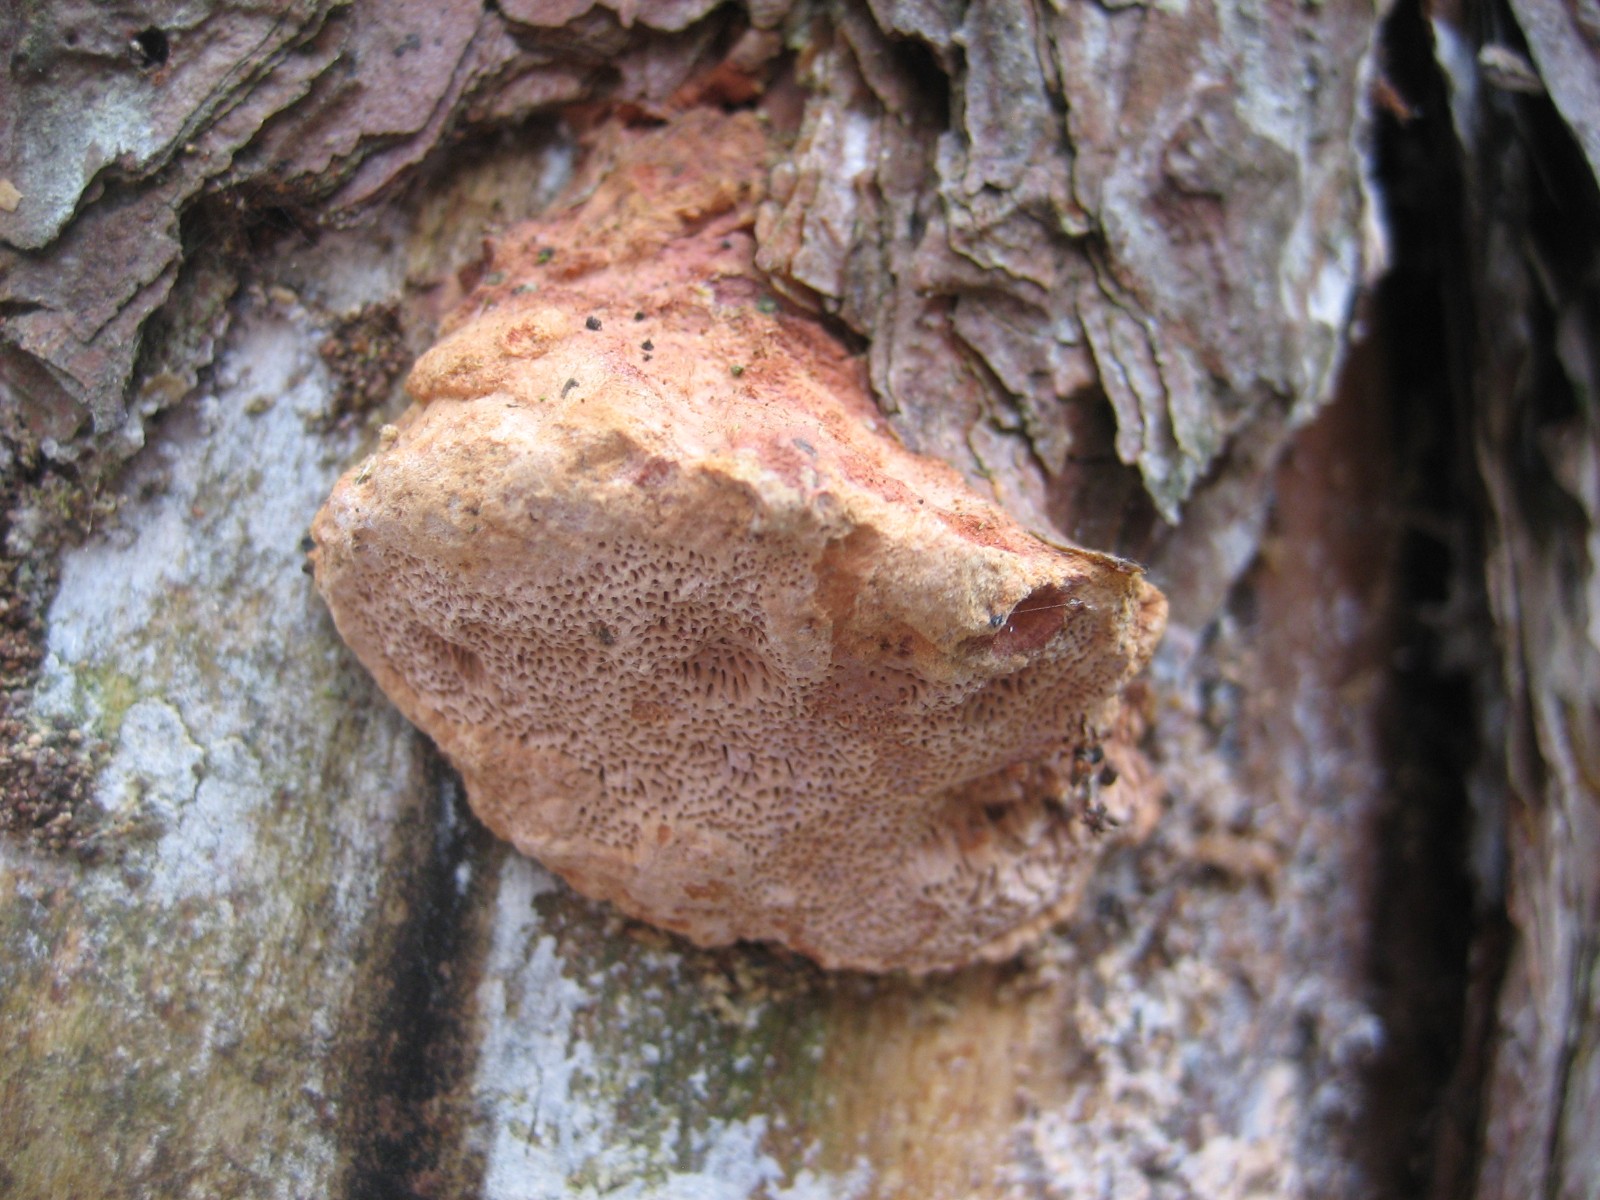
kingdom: Fungi
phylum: Basidiomycota
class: Agaricomycetes
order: Polyporales
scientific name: Polyporales
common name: poresvampordenen
